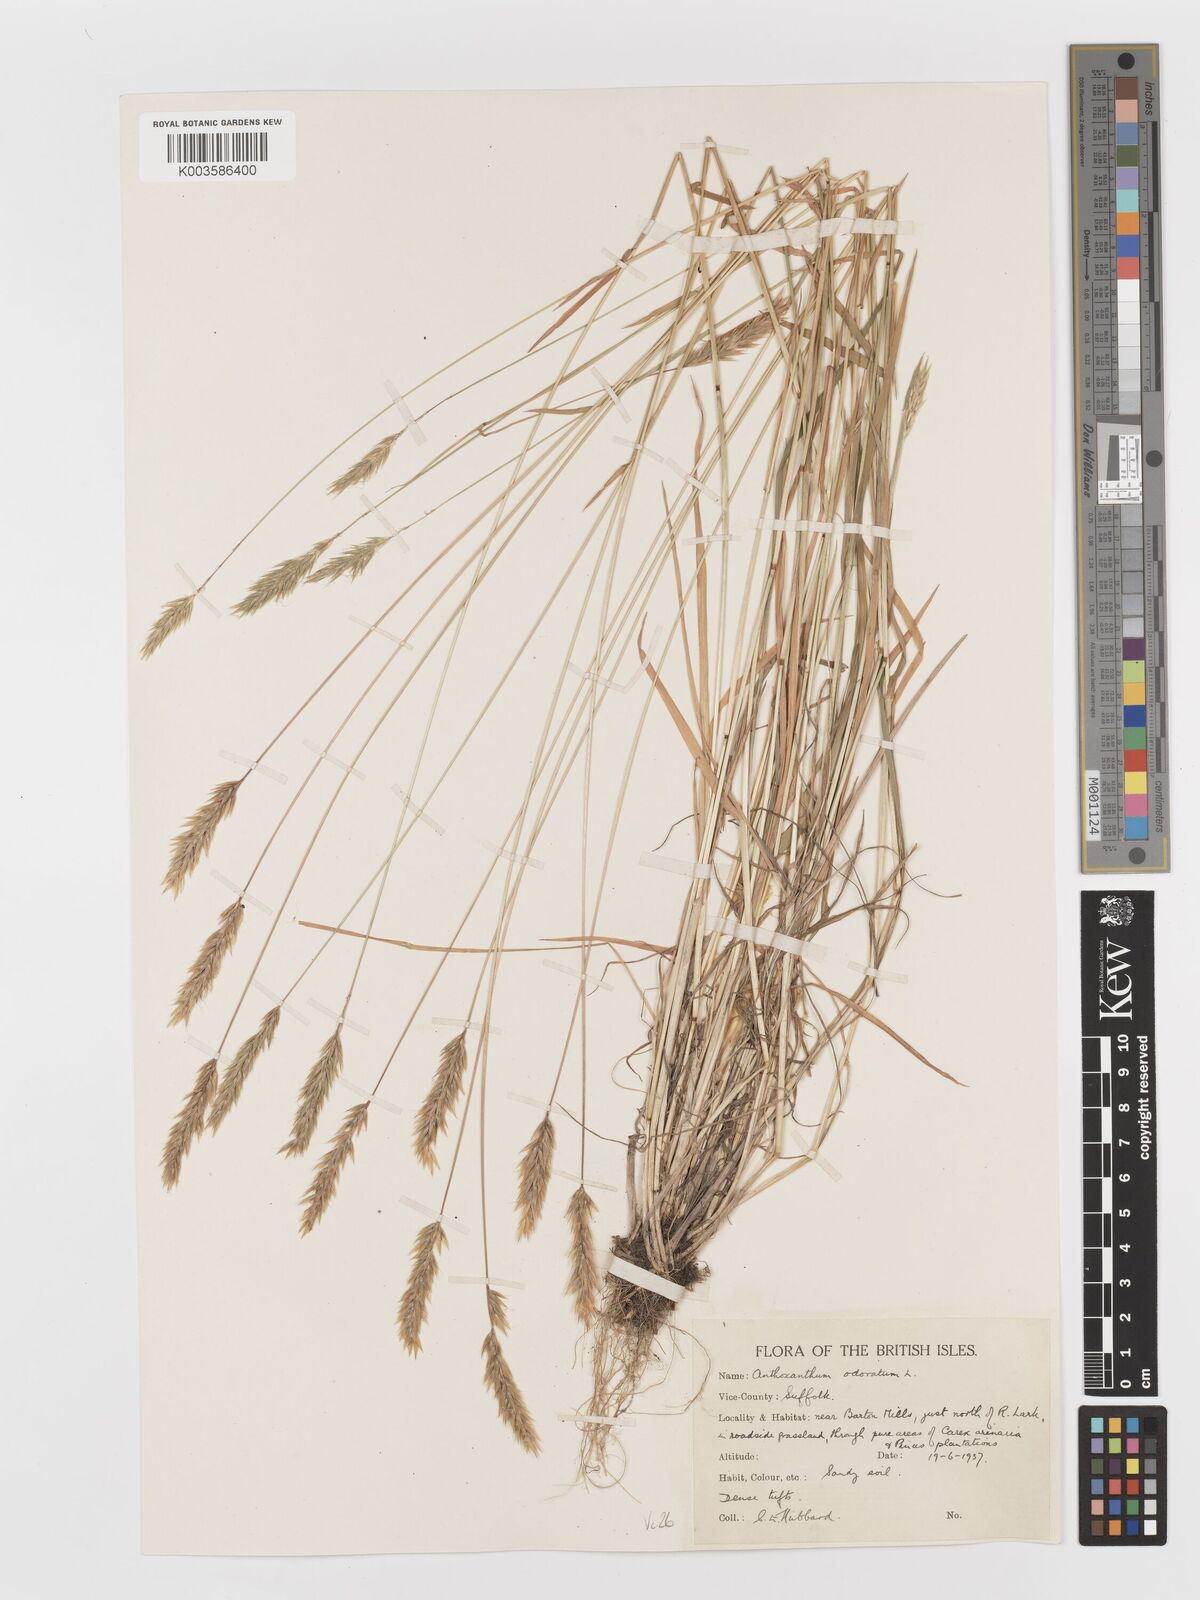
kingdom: Plantae
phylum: Tracheophyta
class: Liliopsida
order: Poales
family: Poaceae
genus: Anthoxanthum
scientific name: Anthoxanthum odoratum
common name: Sweet vernalgrass
